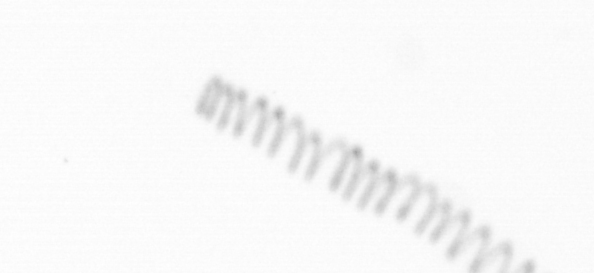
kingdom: Chromista
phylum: Ochrophyta
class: Bacillariophyceae
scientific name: Bacillariophyceae
